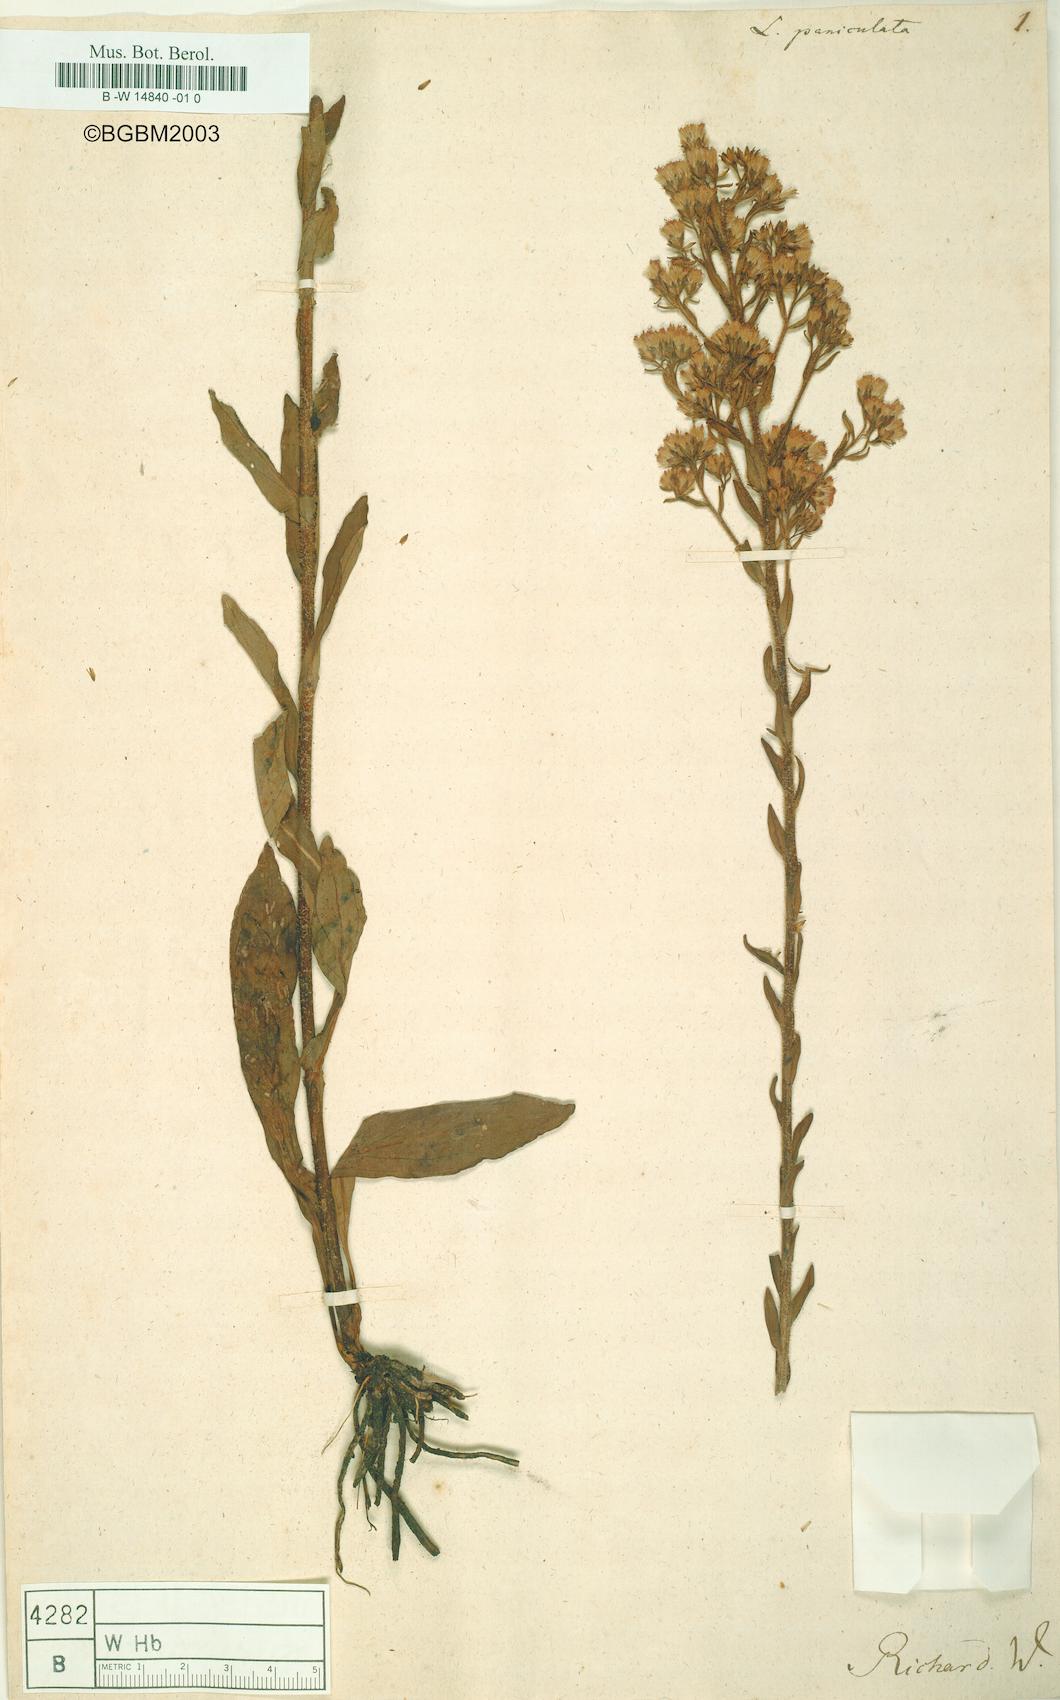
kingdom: Plantae
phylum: Tracheophyta
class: Magnoliopsida
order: Asterales
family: Asteraceae
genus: Carphephorus
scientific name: Carphephorus paniculatus
